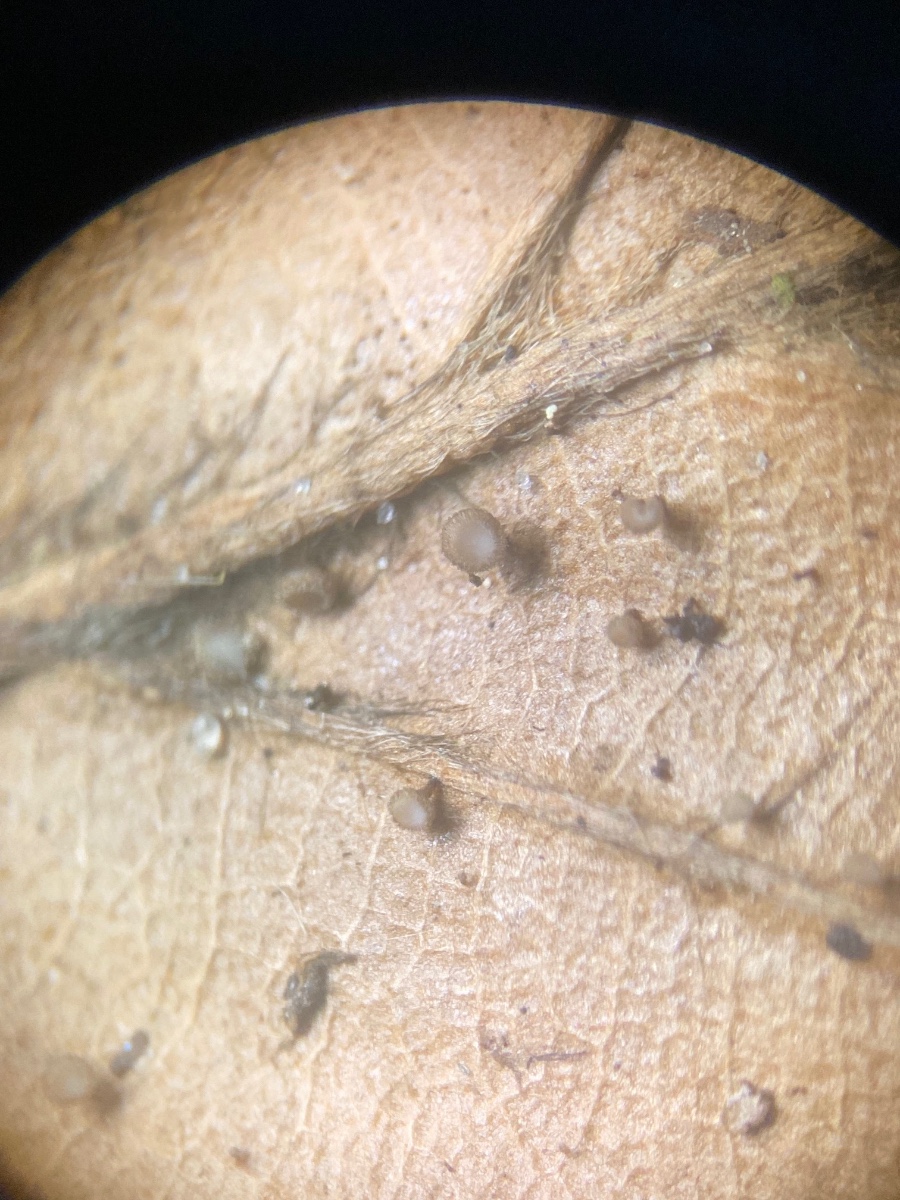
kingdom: Fungi
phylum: Ascomycota
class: Leotiomycetes
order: Helotiales
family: Lachnaceae
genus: Brunnipila
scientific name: Brunnipila fuscescens
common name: bøge-frynseskive
